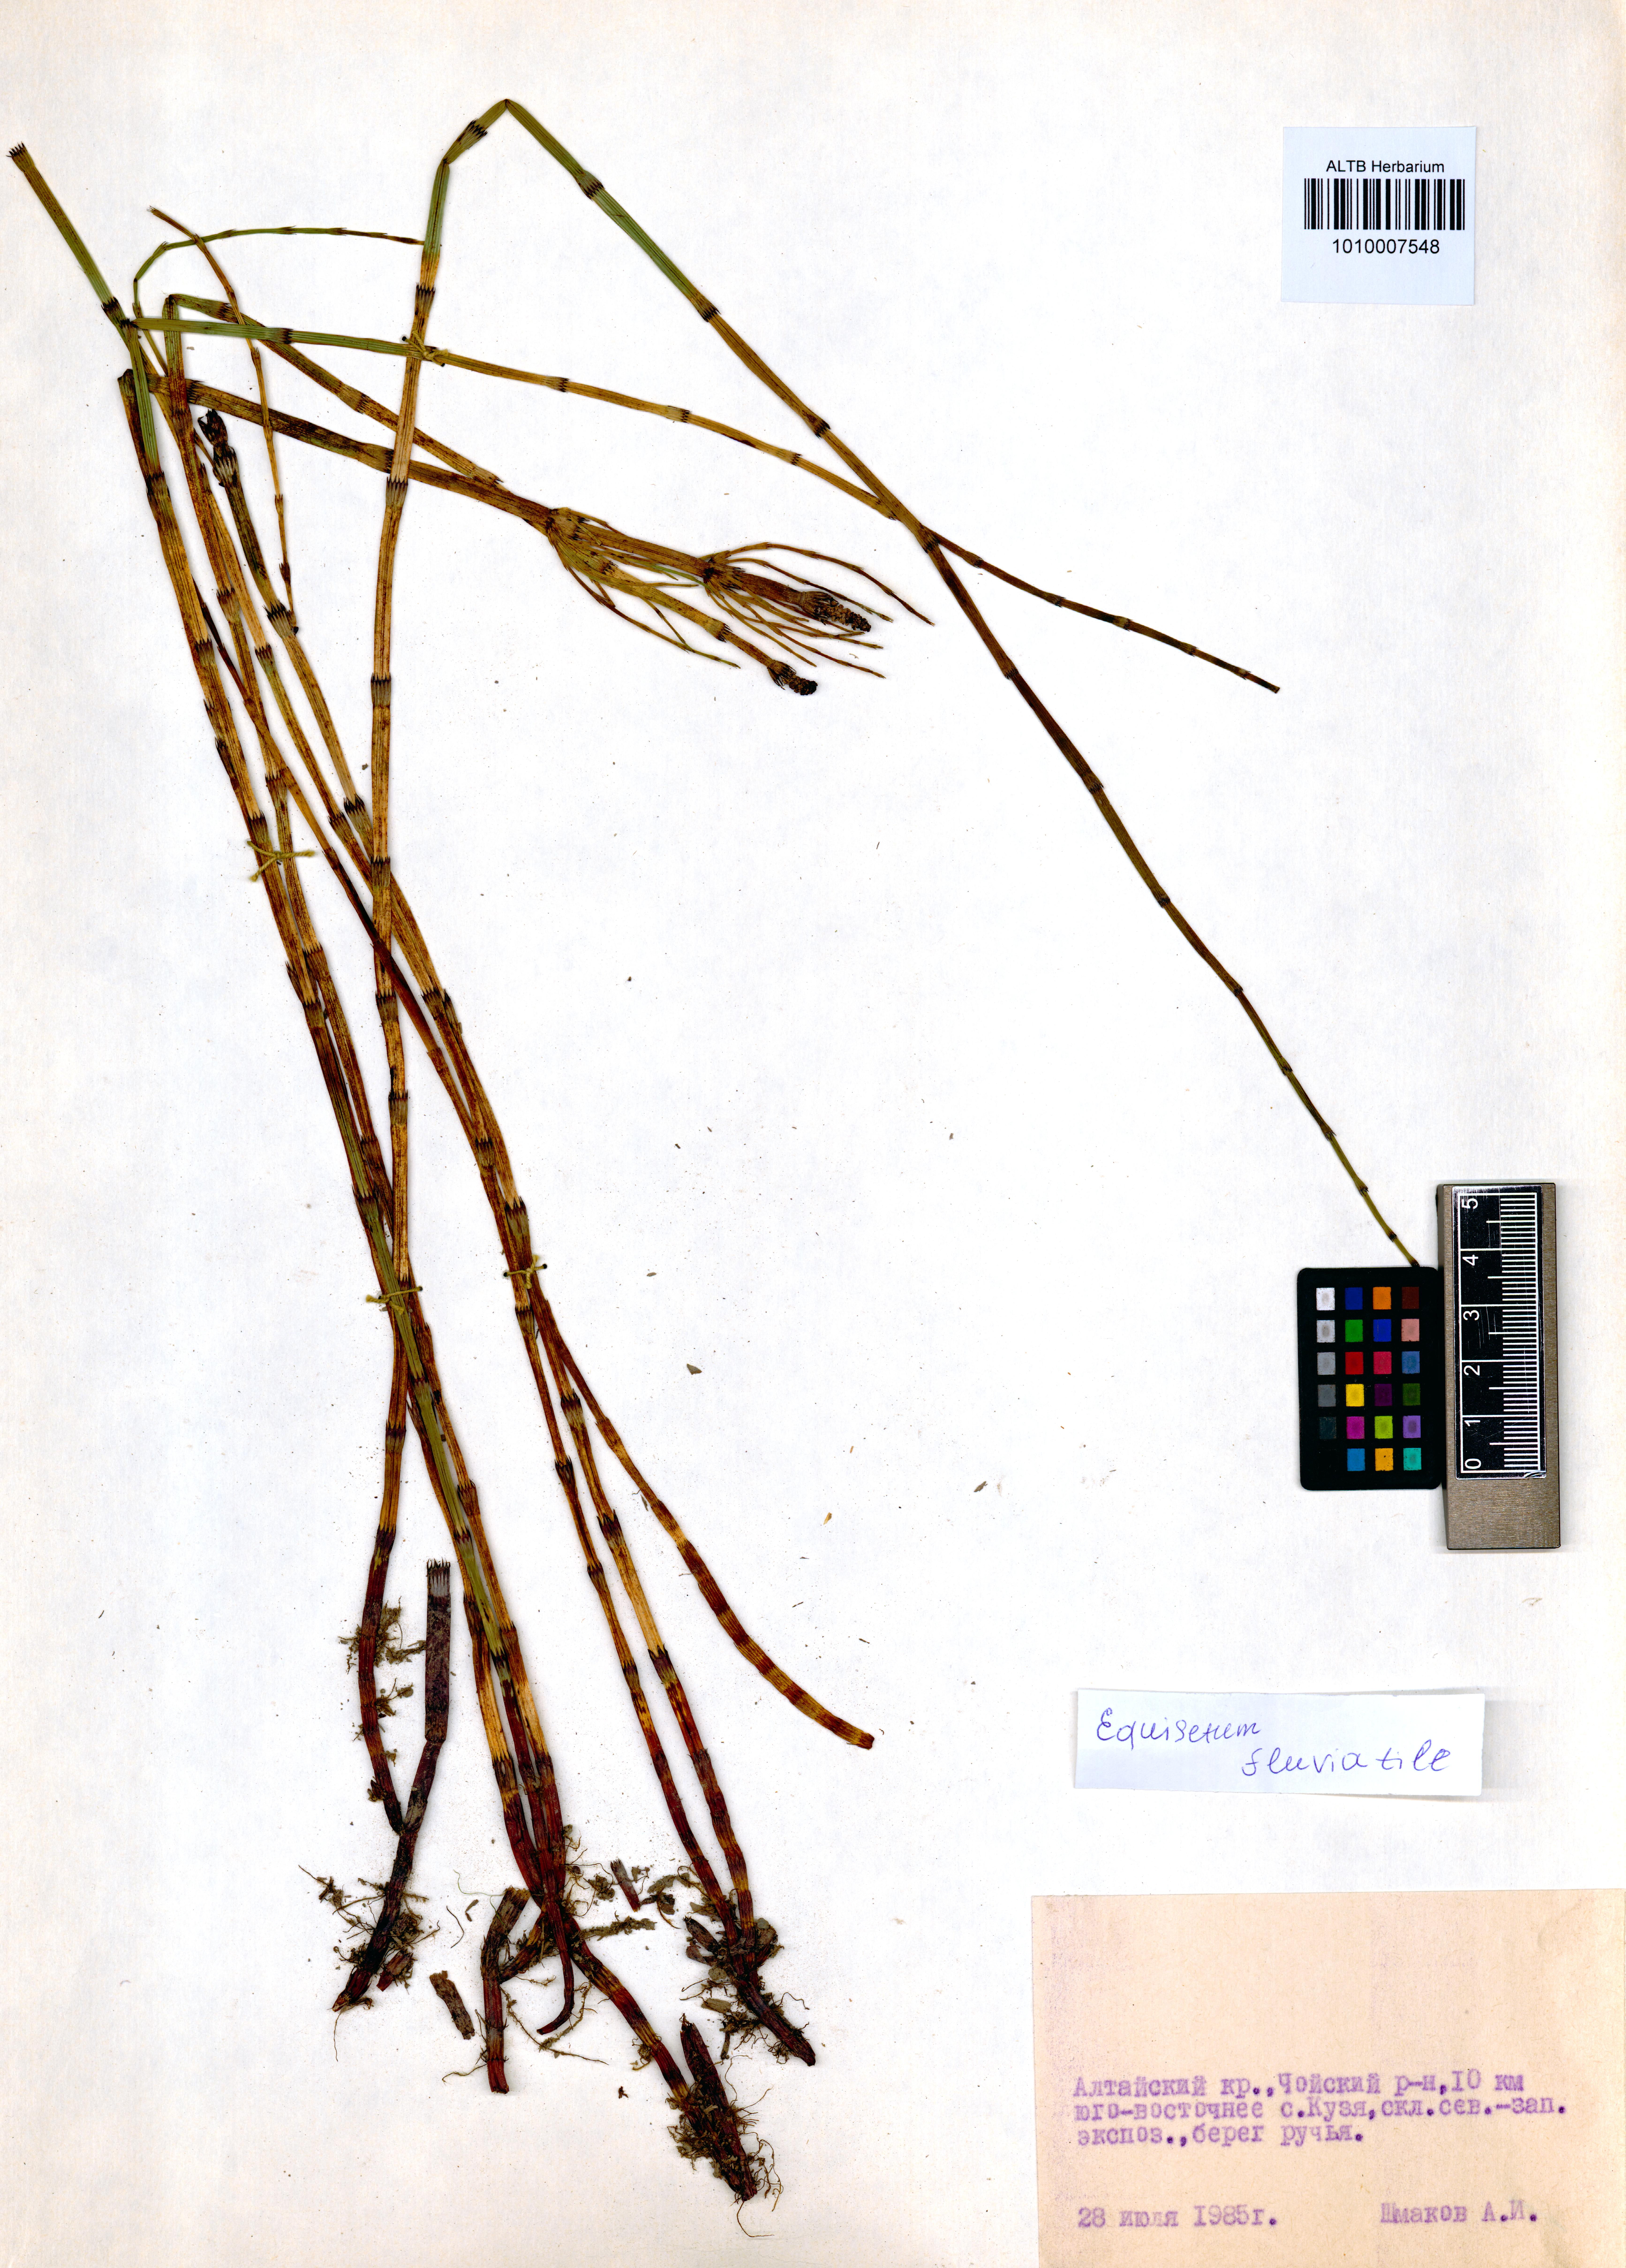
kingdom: Plantae
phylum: Tracheophyta
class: Polypodiopsida
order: Equisetales
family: Equisetaceae
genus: Equisetum
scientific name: Equisetum fluviatile
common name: Water horsetail
